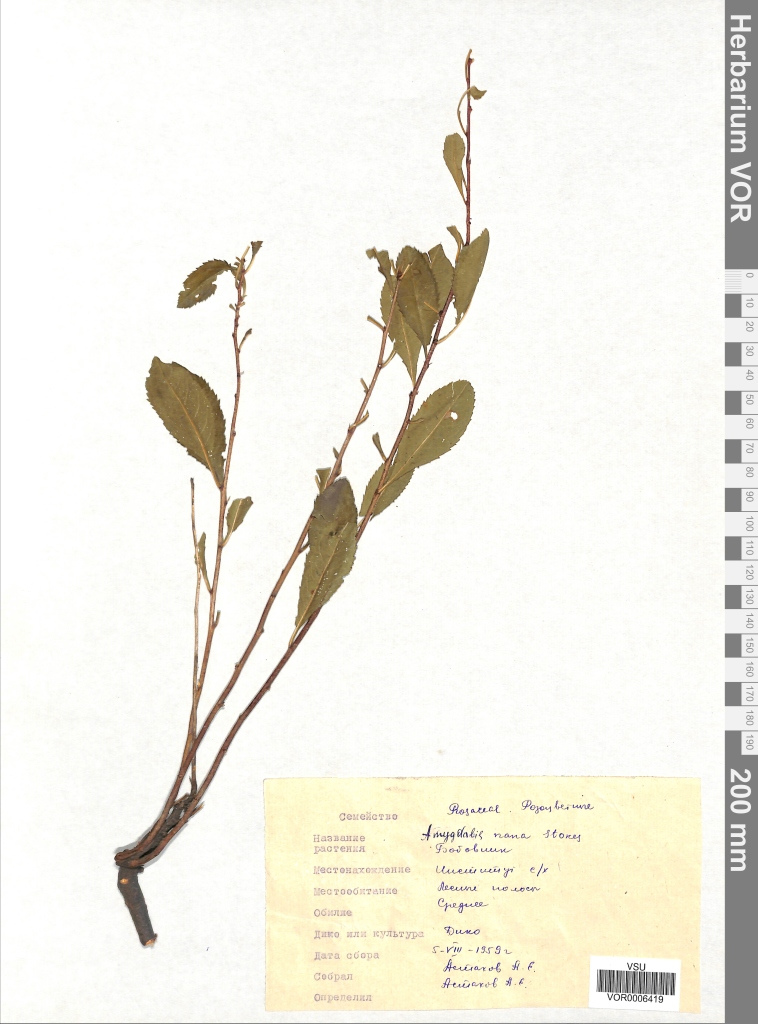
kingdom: Plantae
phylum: Tracheophyta
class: Magnoliopsida
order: Rosales
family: Rosaceae
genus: Prunus
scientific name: Prunus tenella
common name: Dwarf russian almond
